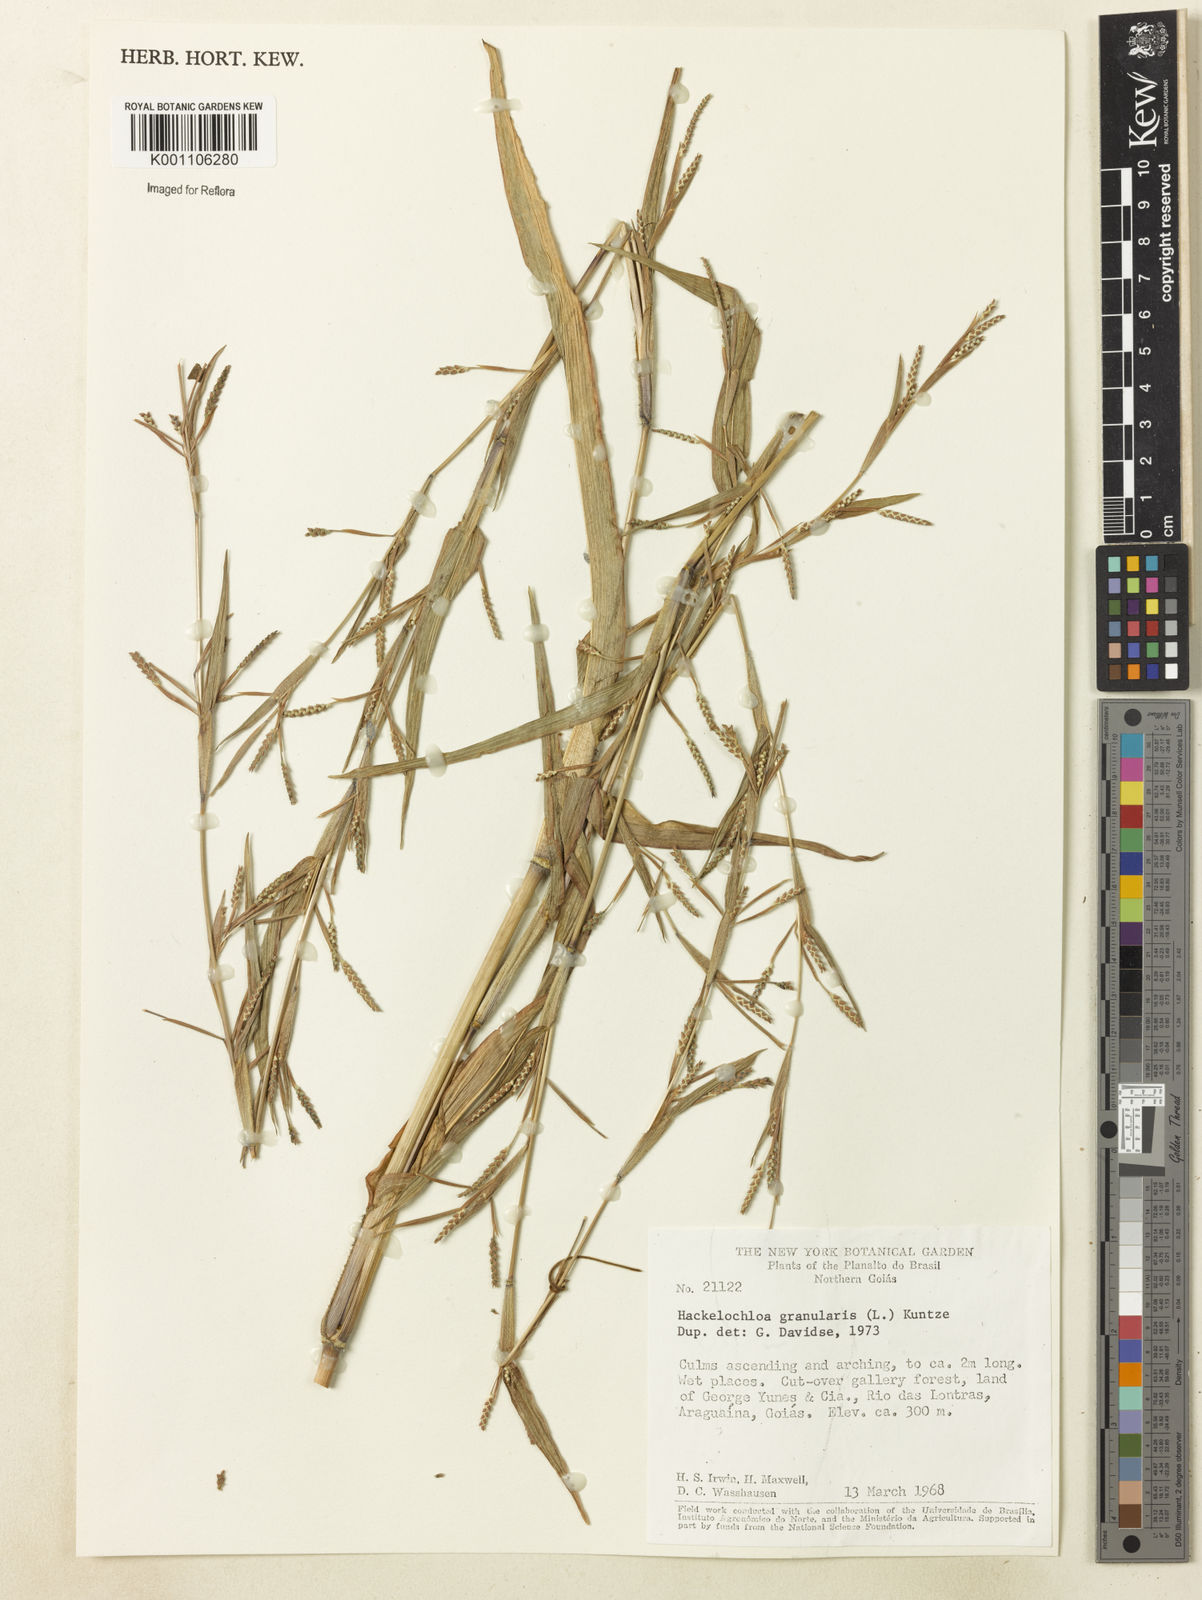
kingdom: Plantae
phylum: Tracheophyta
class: Liliopsida
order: Poales
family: Poaceae
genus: Hackelochloa
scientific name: Hackelochloa granularis
